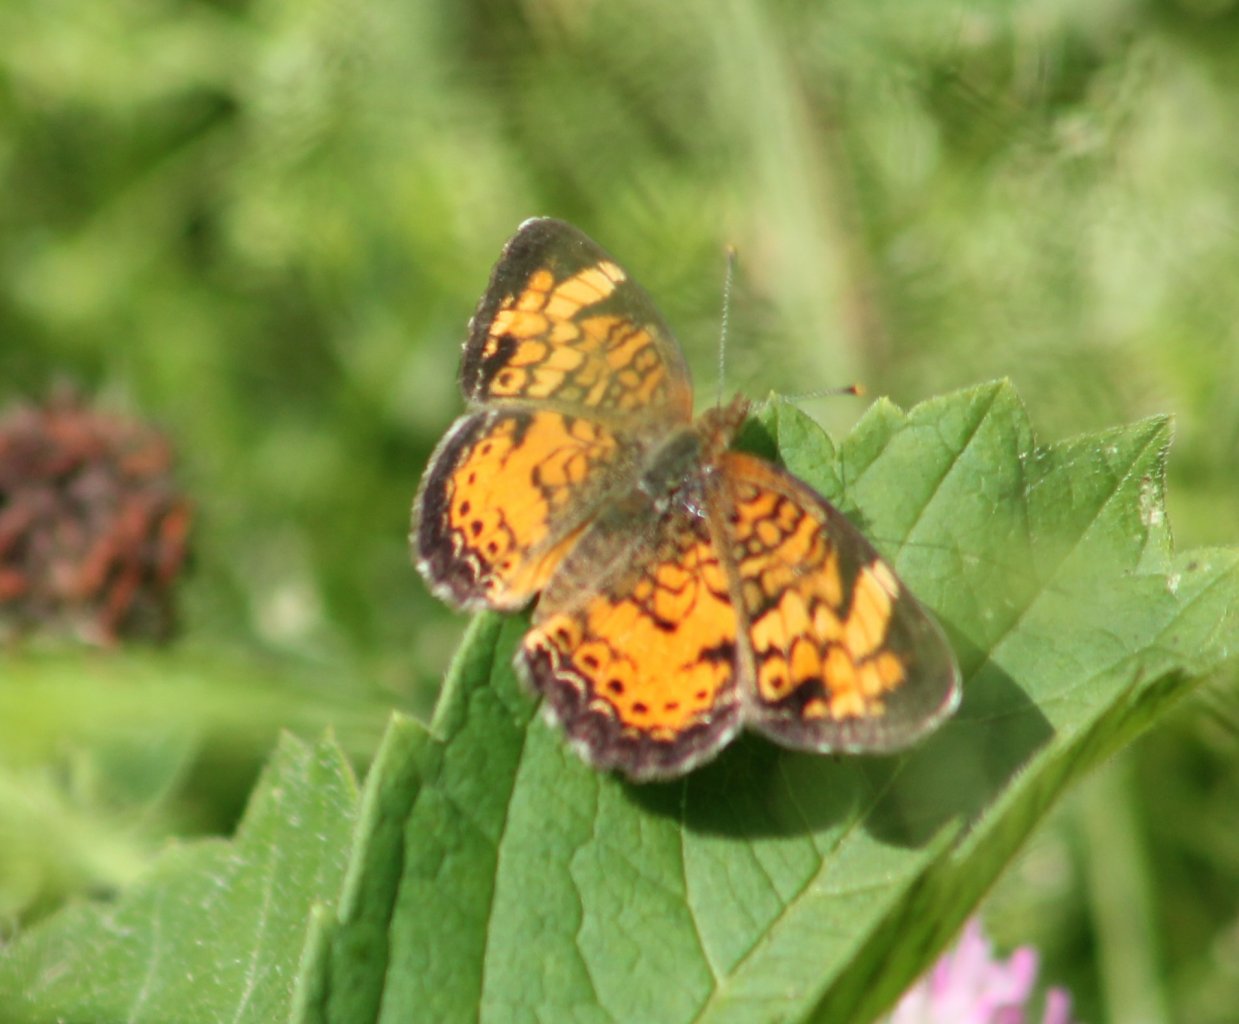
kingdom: Animalia
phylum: Arthropoda
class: Insecta
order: Lepidoptera
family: Nymphalidae
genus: Phyciodes
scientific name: Phyciodes tharos
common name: Northern Crescent
